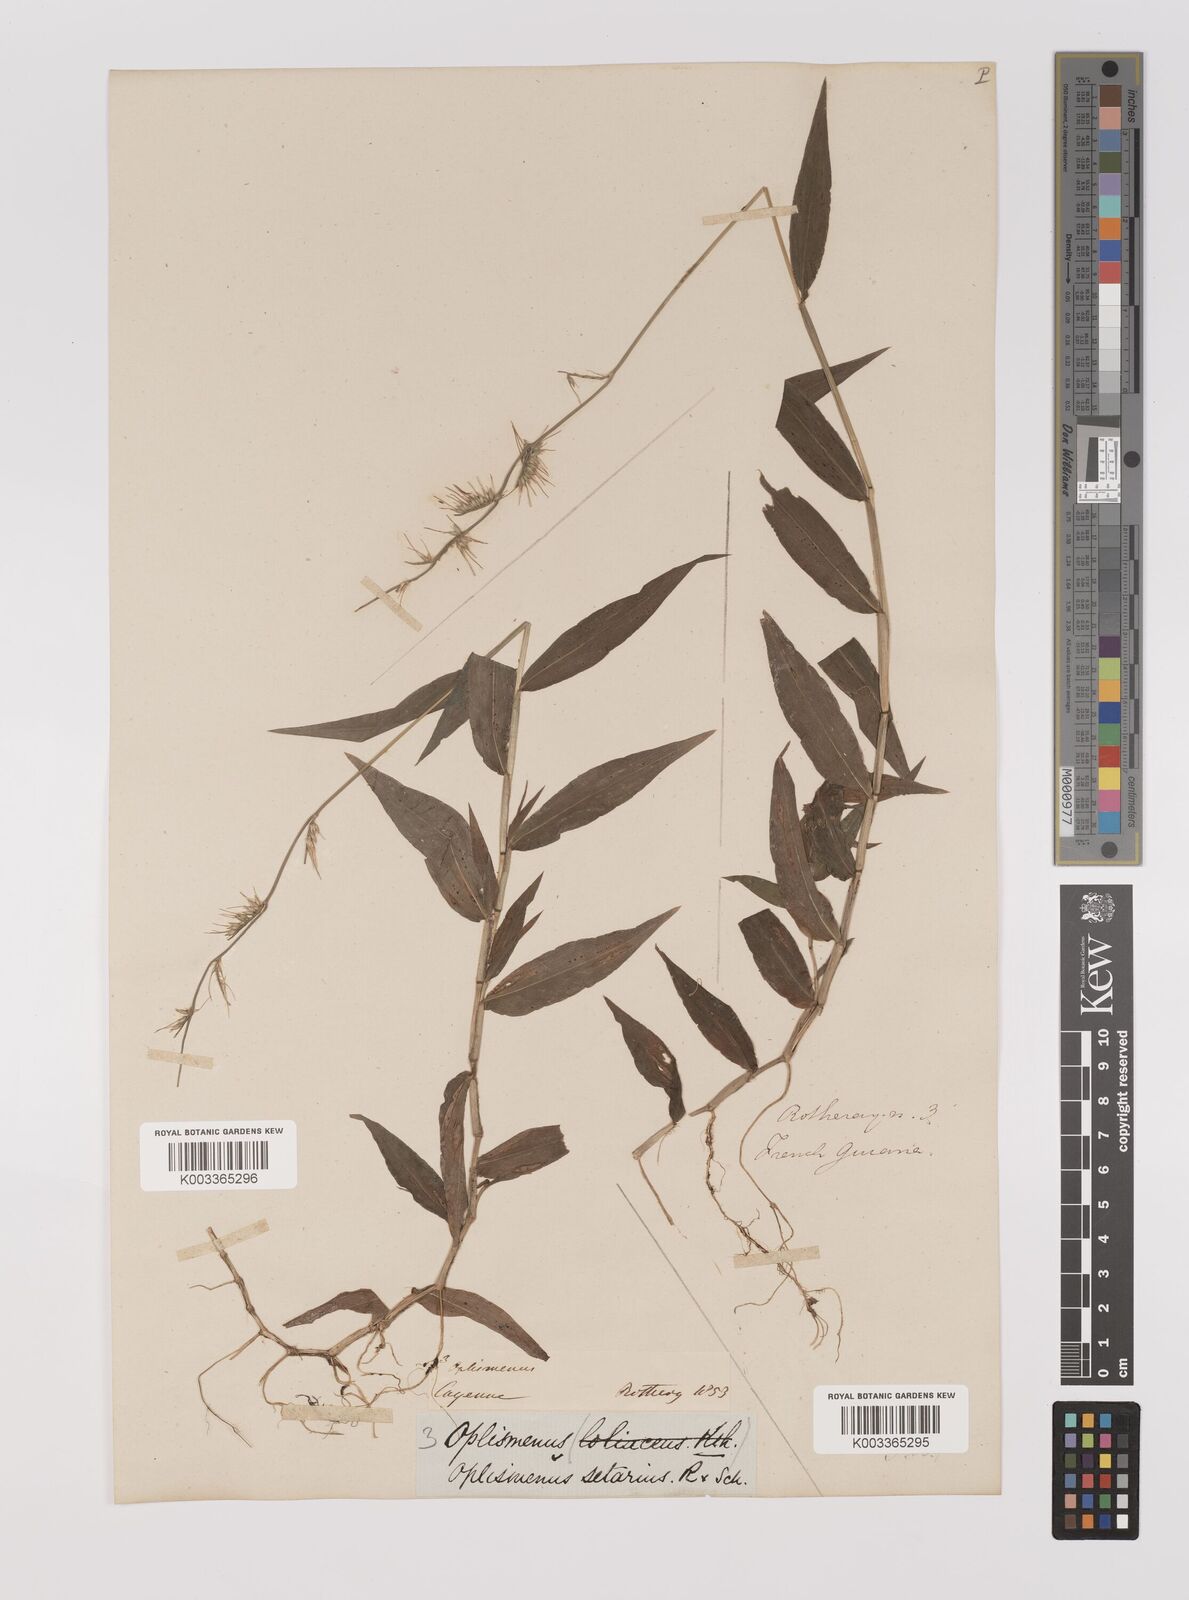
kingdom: Plantae
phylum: Tracheophyta
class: Liliopsida
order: Poales
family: Poaceae
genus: Oplismenus
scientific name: Oplismenus hirtellus
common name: Basketgrass
